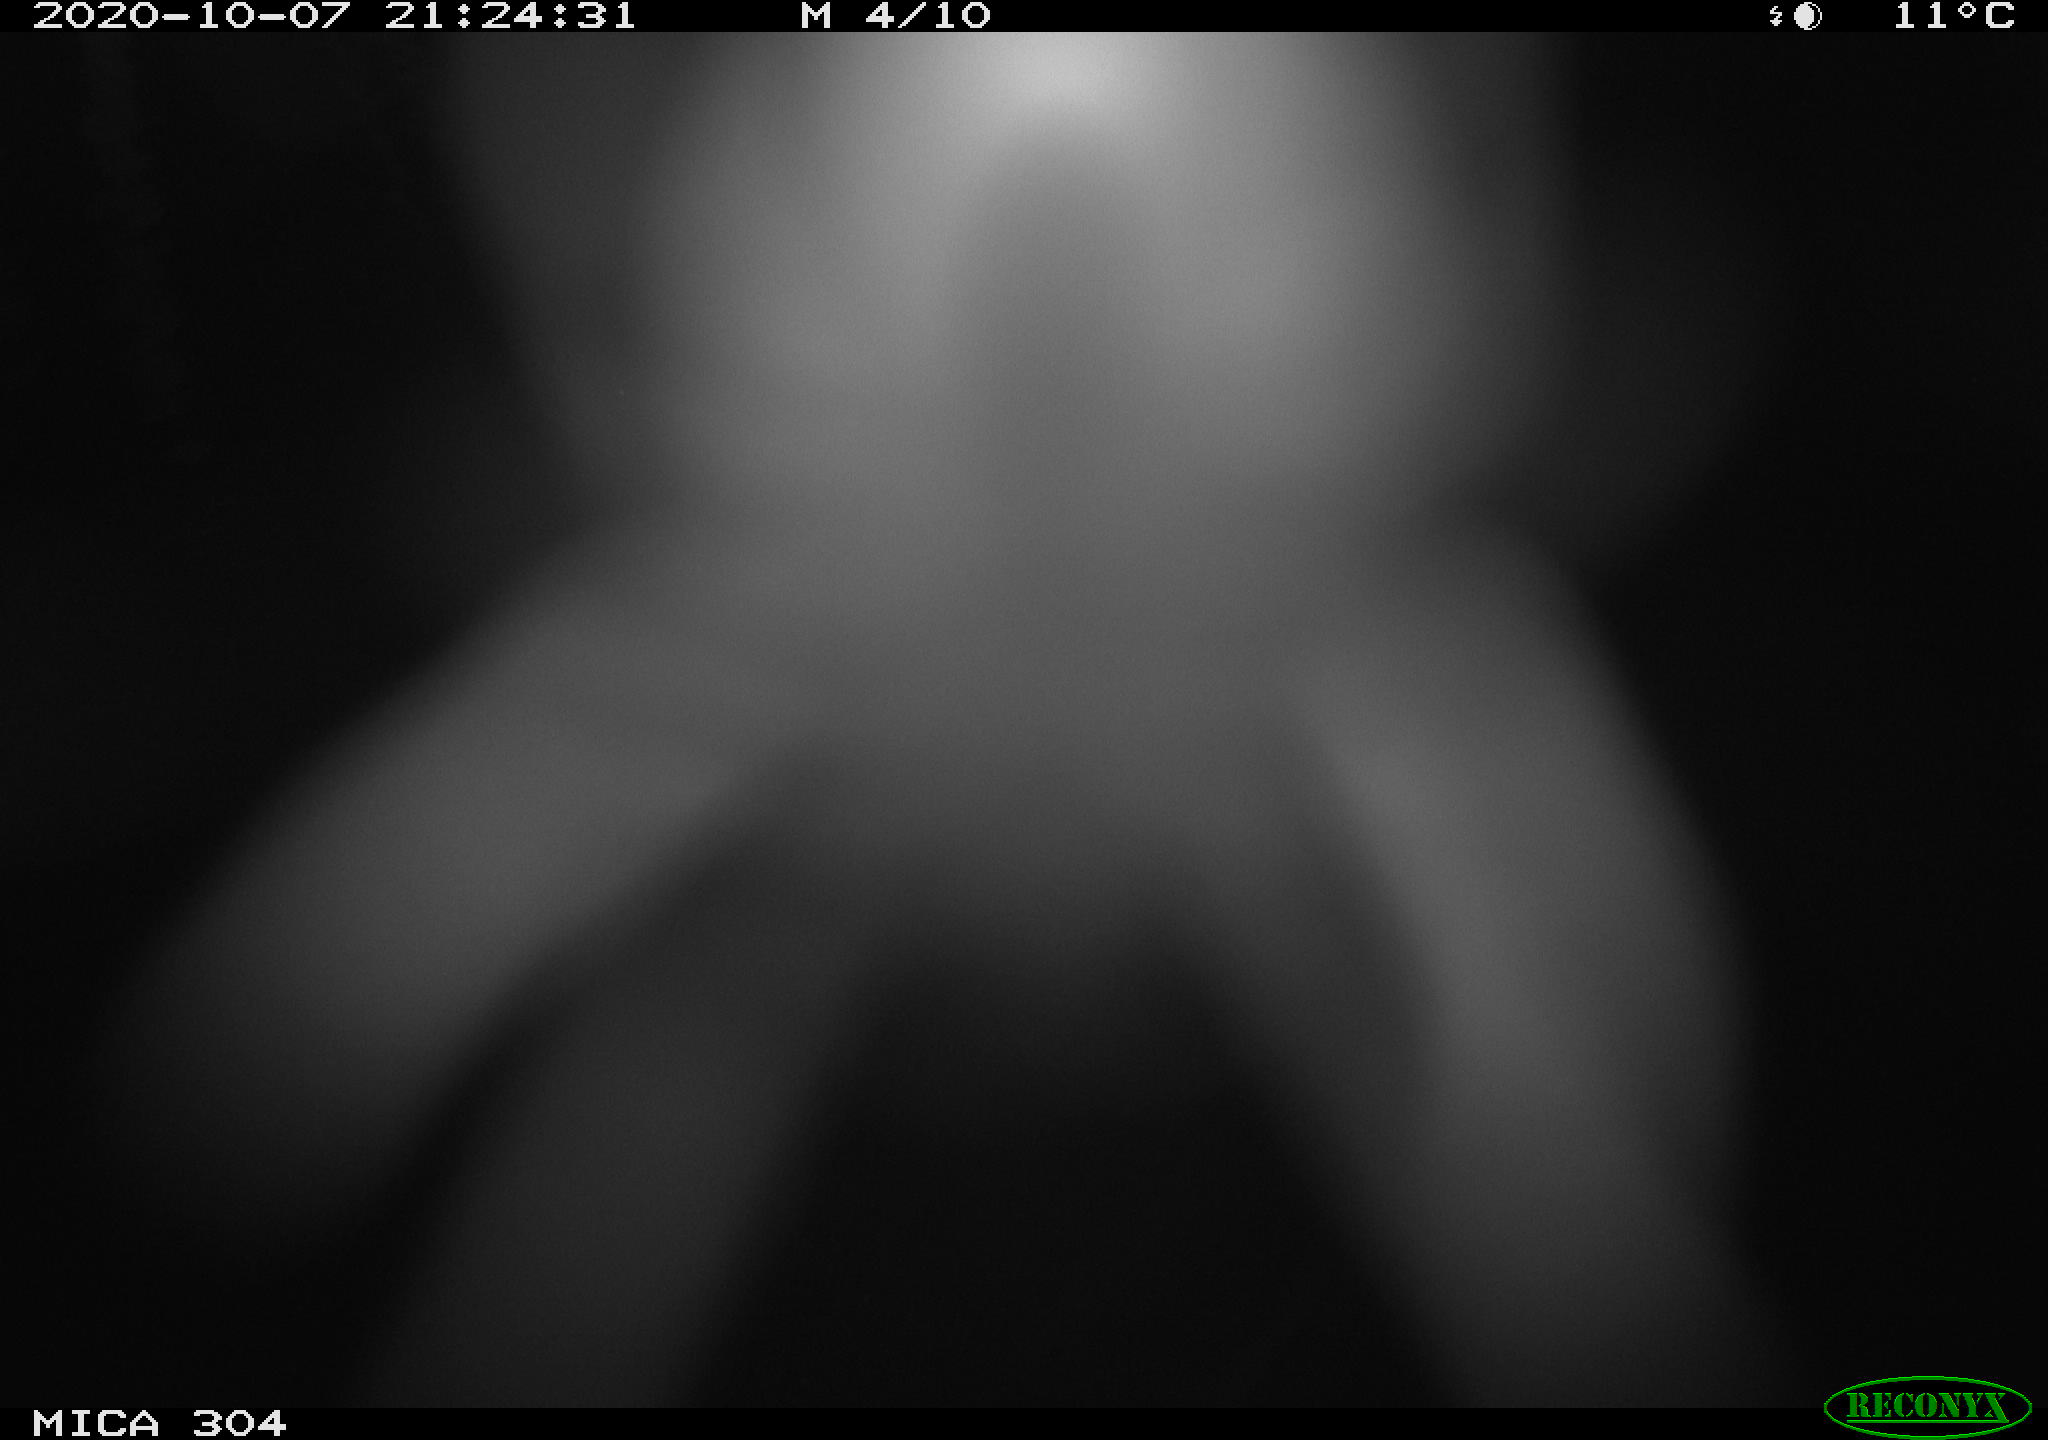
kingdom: Animalia
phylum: Chordata
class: Mammalia
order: Rodentia
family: Cricetidae
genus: Ondatra
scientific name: Ondatra zibethicus
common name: Muskrat
